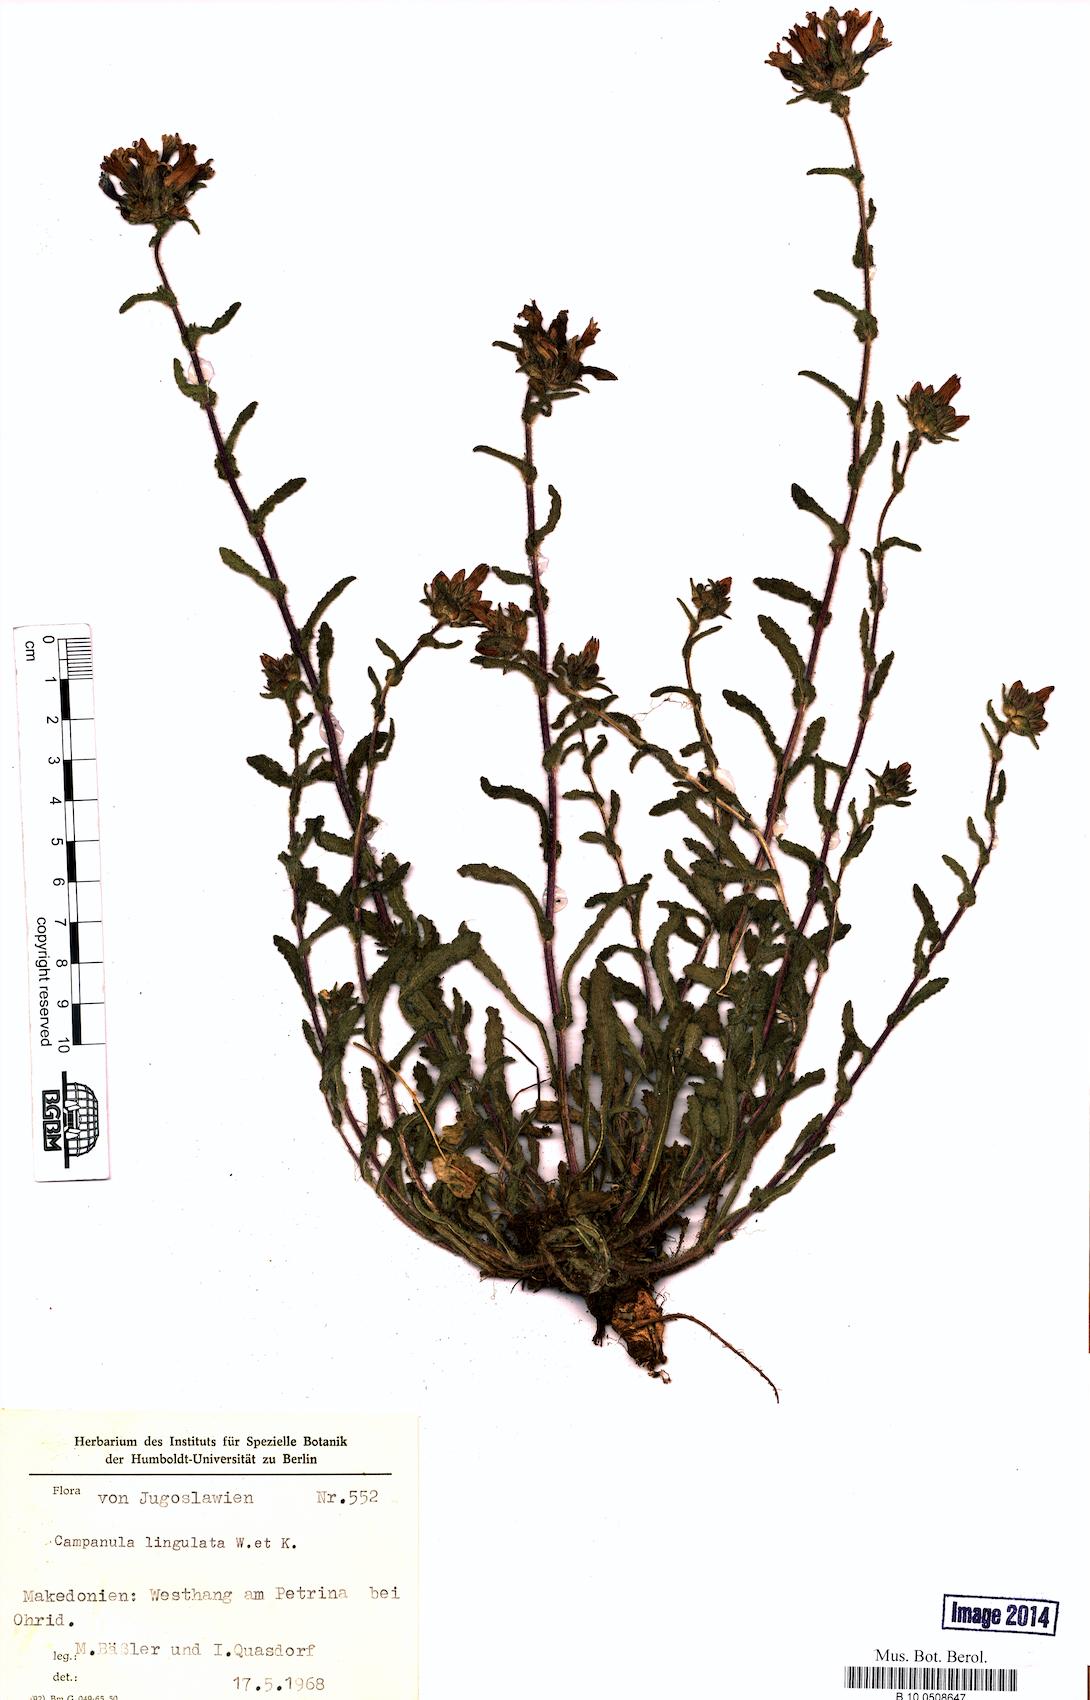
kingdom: Plantae
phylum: Tracheophyta
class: Magnoliopsida
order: Asterales
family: Campanulaceae
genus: Campanula
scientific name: Campanula lingulata
